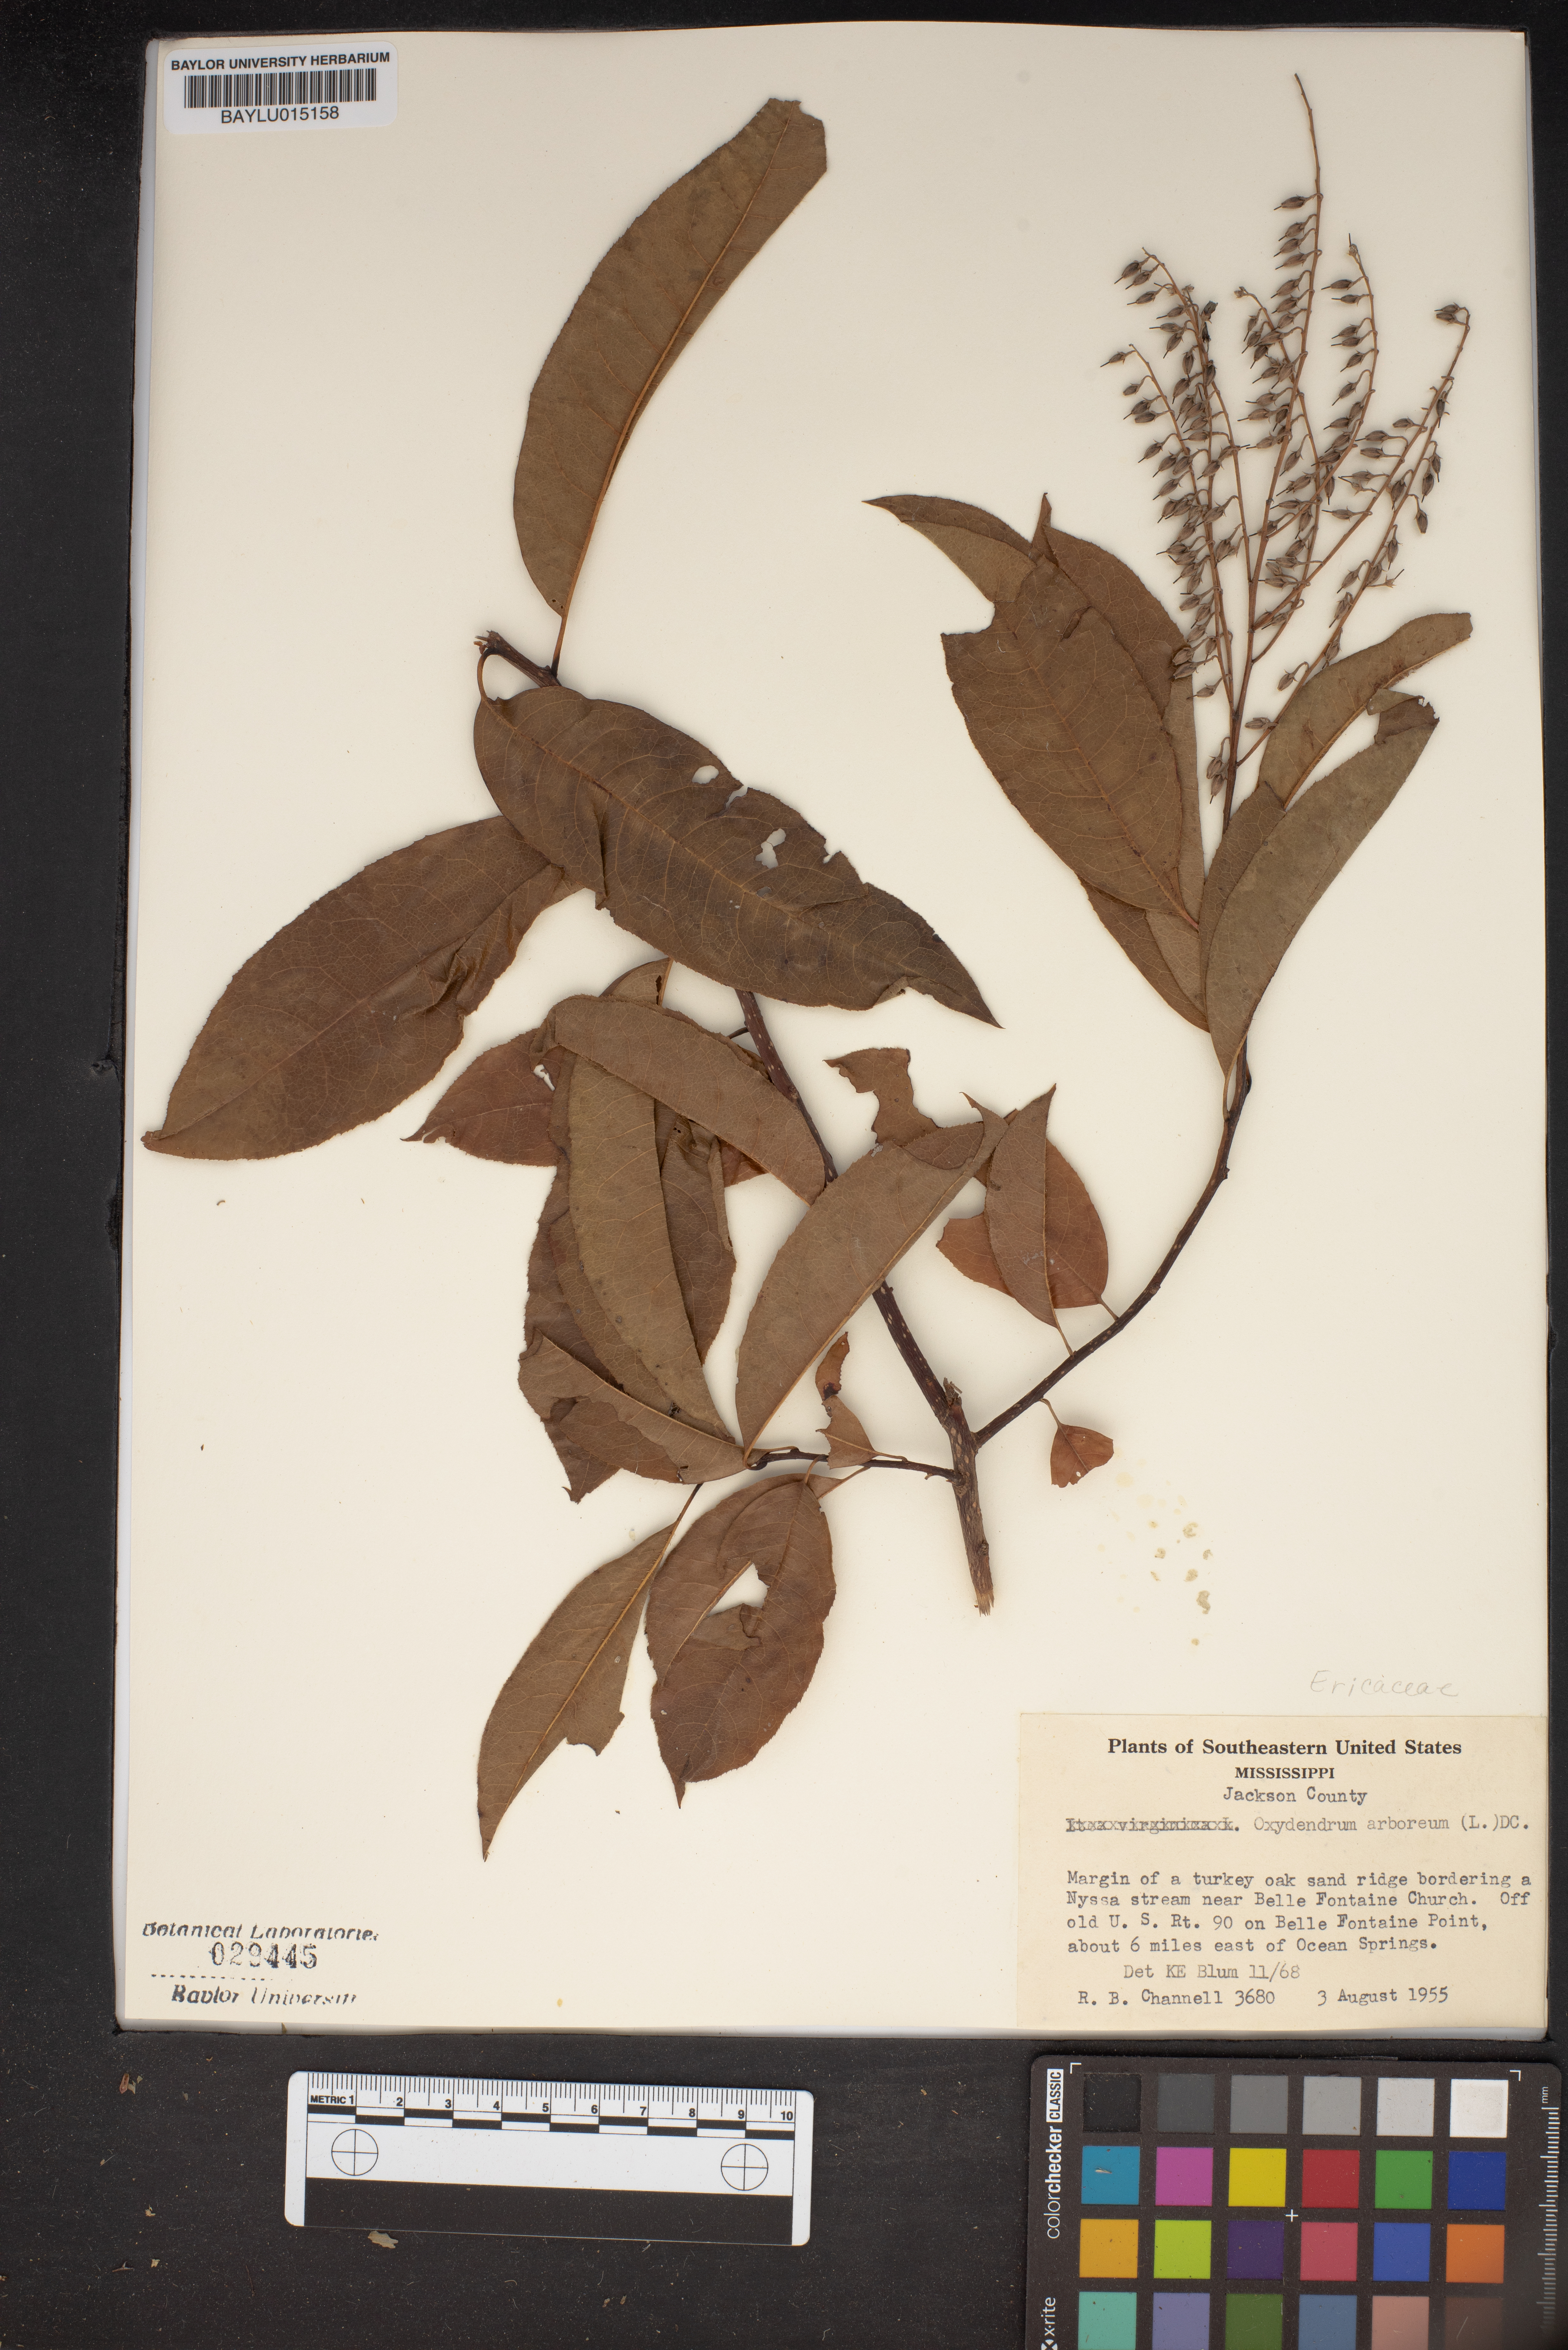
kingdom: Plantae
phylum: Tracheophyta
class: Magnoliopsida
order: Ericales
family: Ericaceae
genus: Oxydendrum
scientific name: Oxydendrum arboreum
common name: Sourwood
